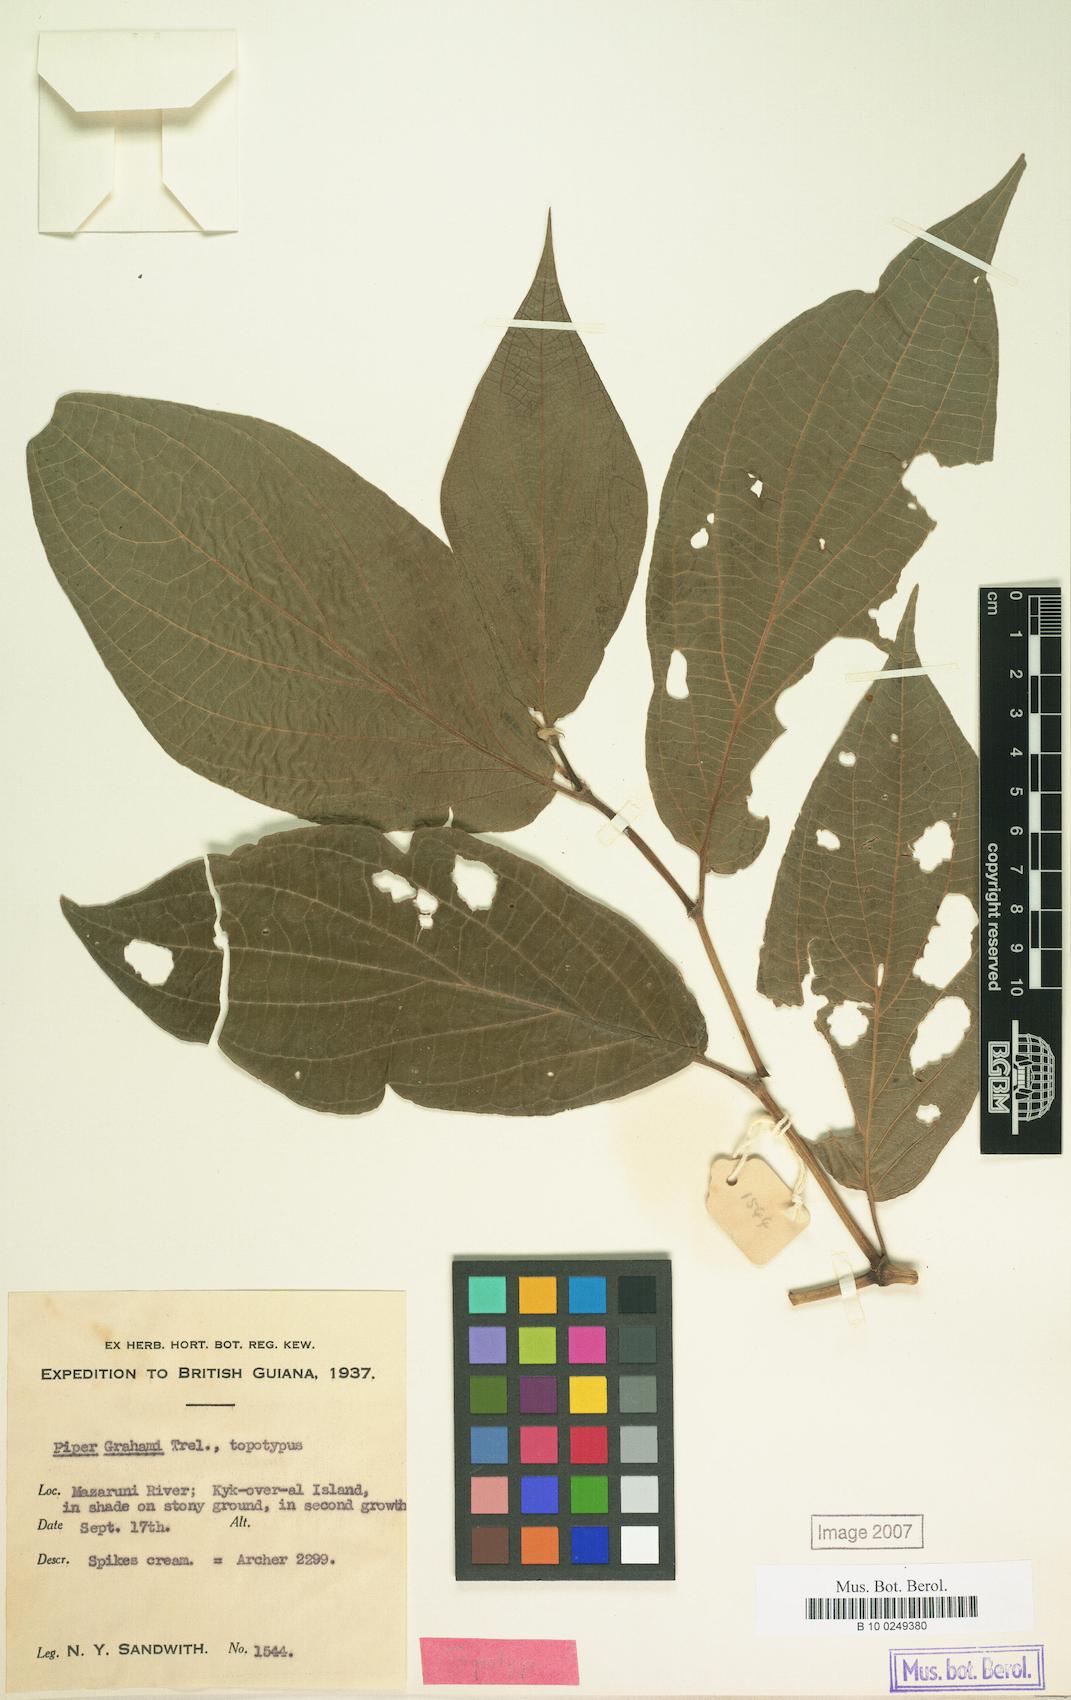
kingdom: Plantae
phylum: Tracheophyta
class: Magnoliopsida
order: Piperales
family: Piperaceae
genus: Piper
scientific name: Piper dilatatum
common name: Higuillo
